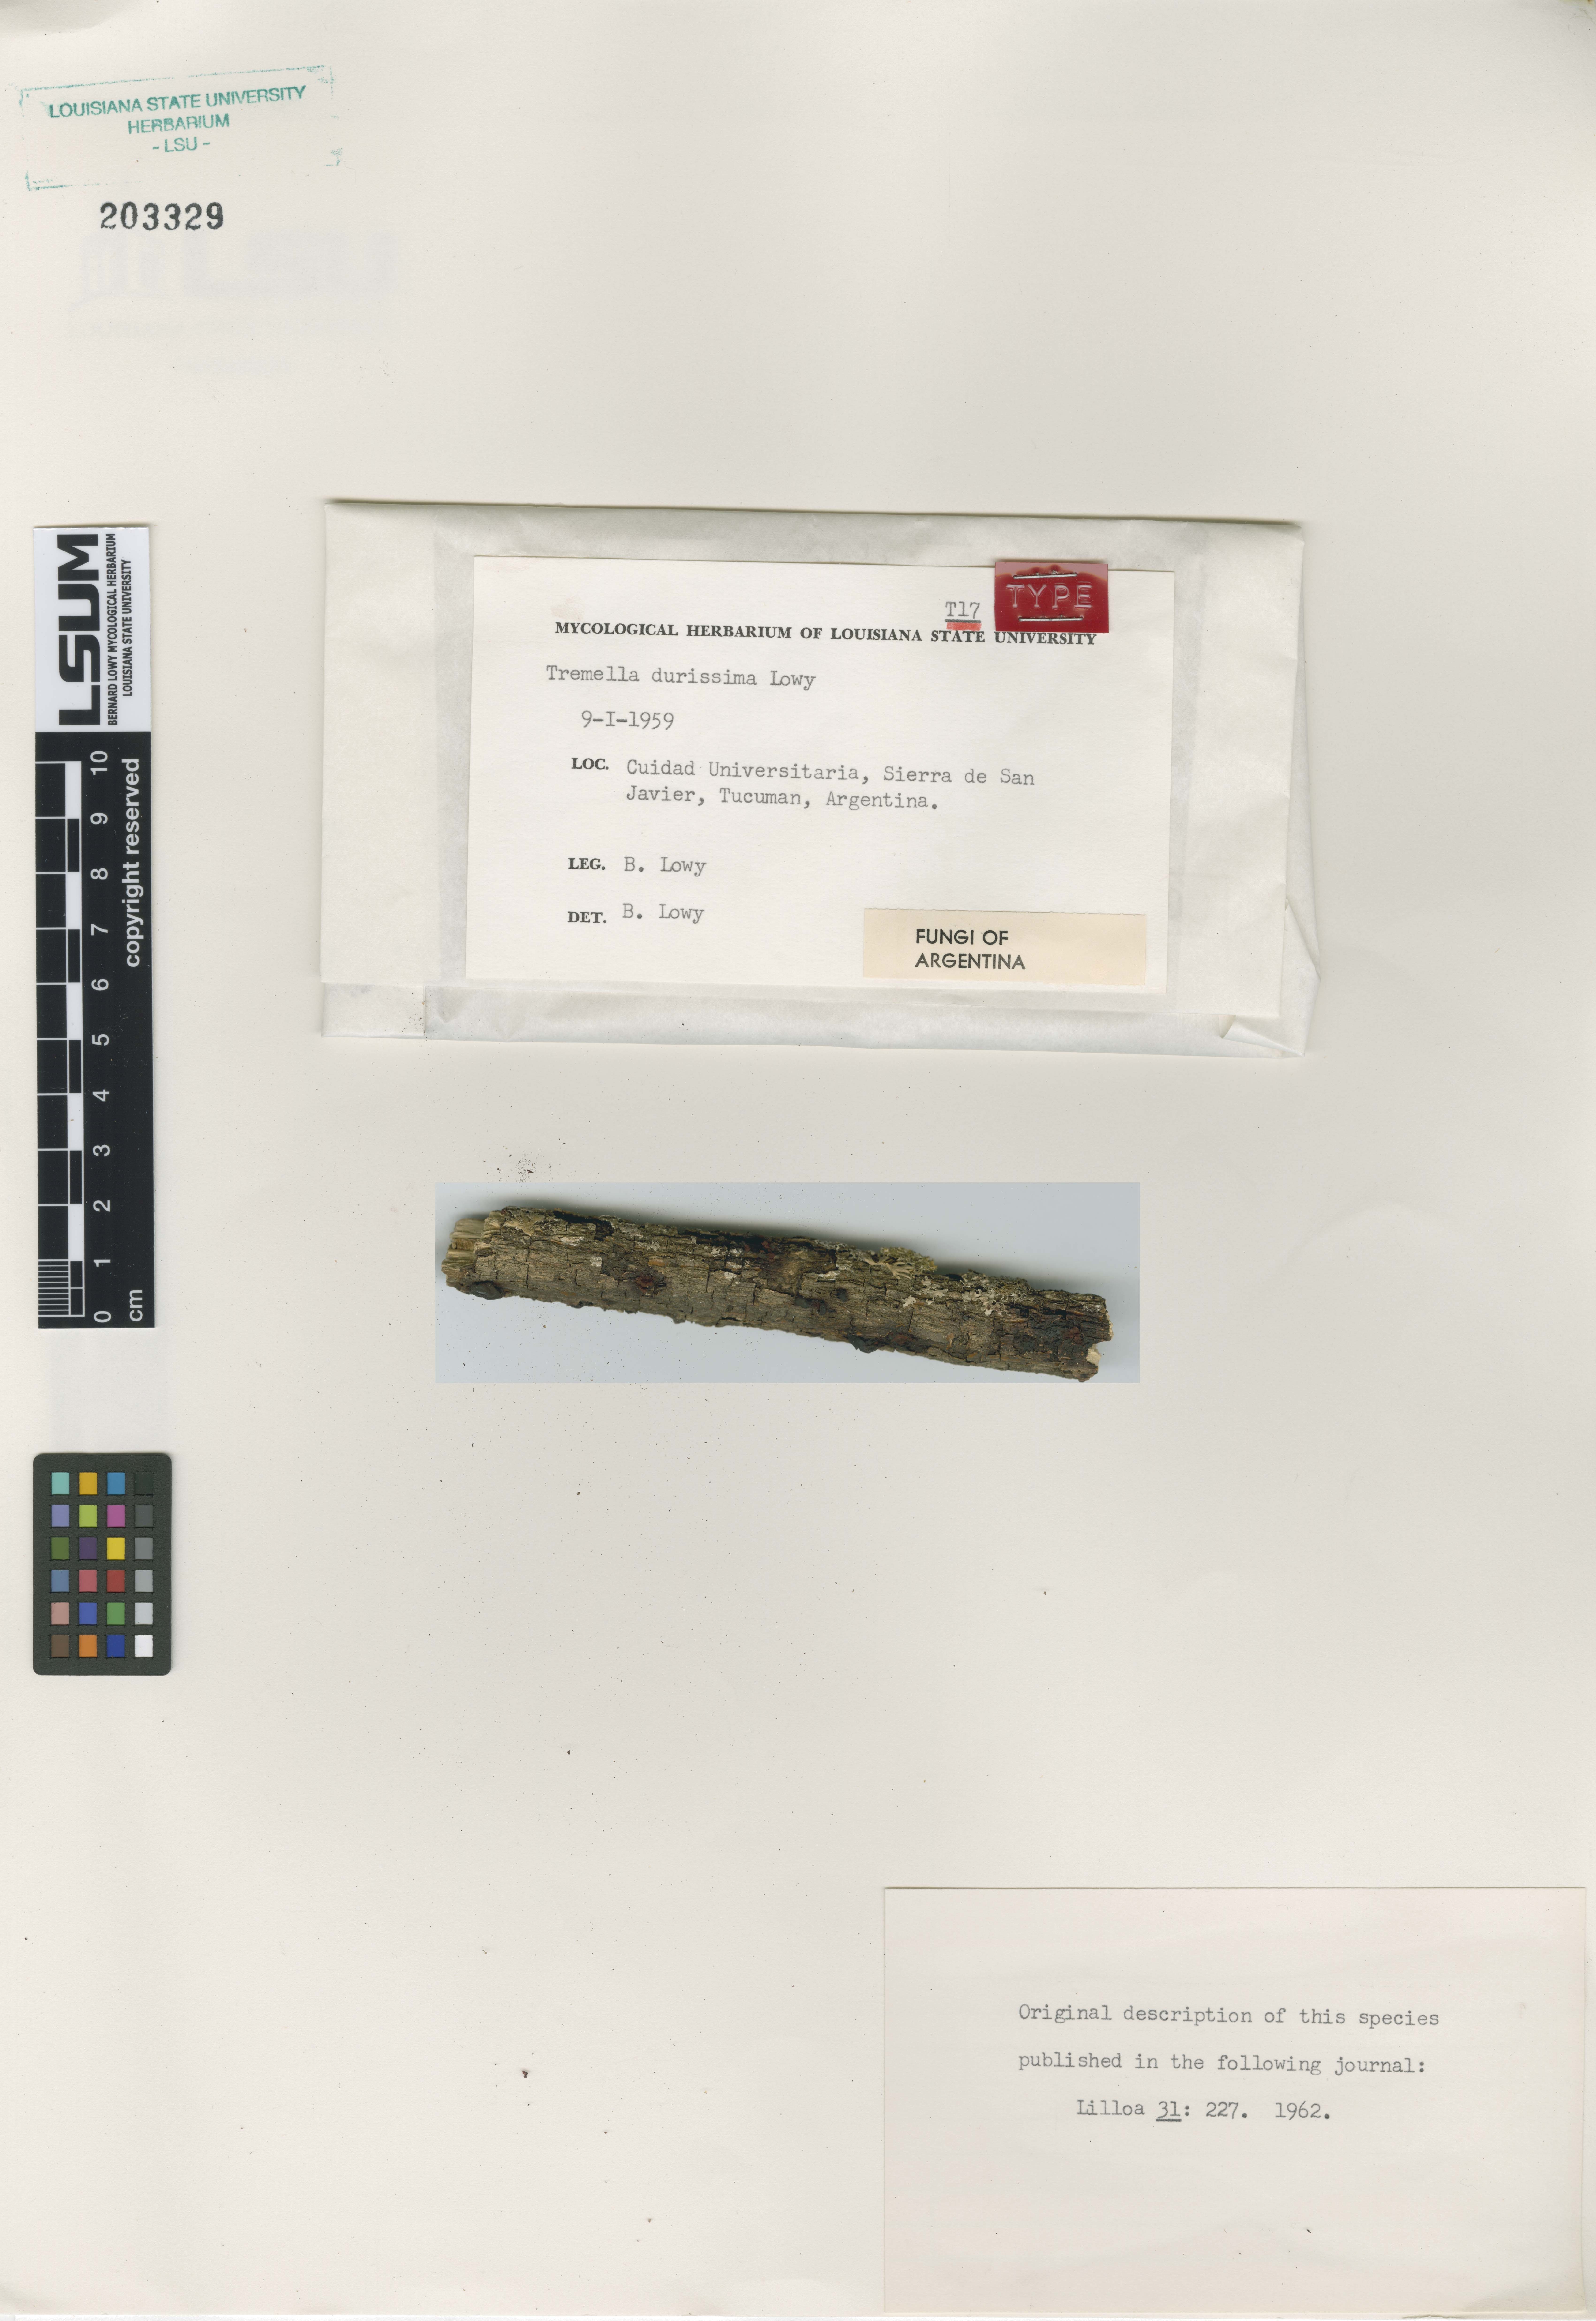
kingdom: Fungi
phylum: Basidiomycota
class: Tremellomycetes
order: Tremellales
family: Tremellaceae
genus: Tremella
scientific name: Tremella durissima
